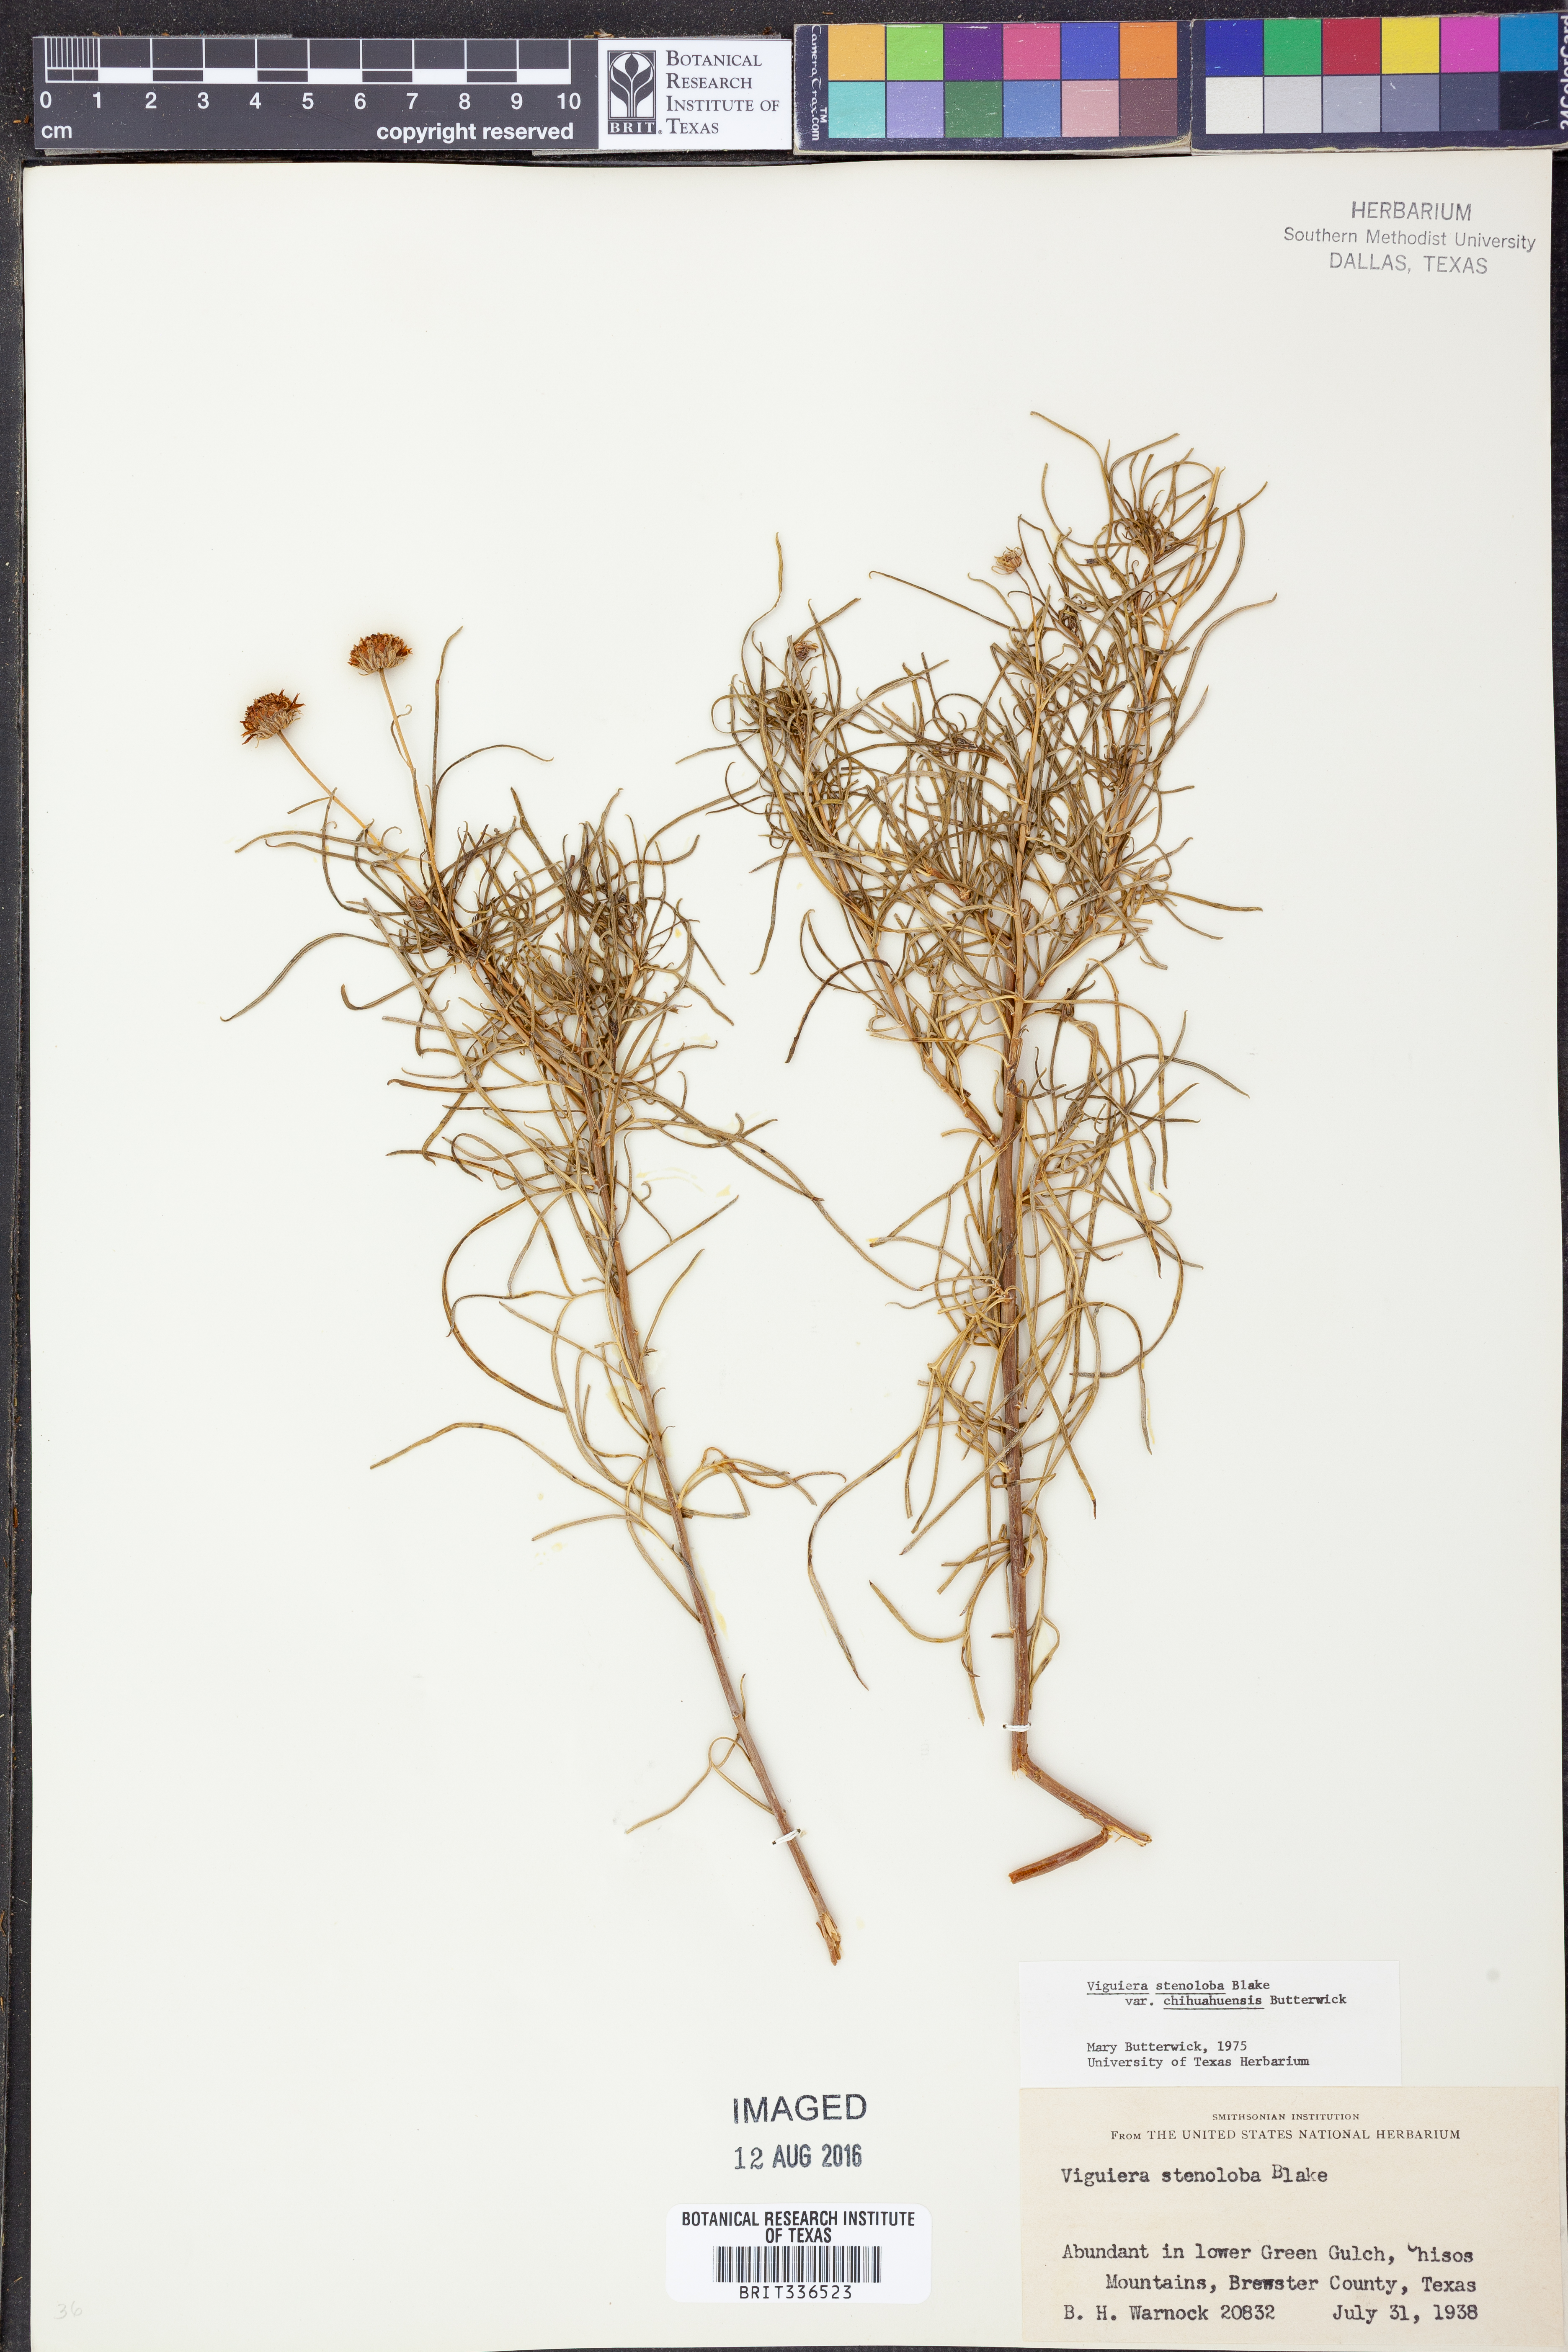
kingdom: Plantae
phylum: Tracheophyta
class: Magnoliopsida
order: Asterales
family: Asteraceae
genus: Sidneya
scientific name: Sidneya tenuifolia
